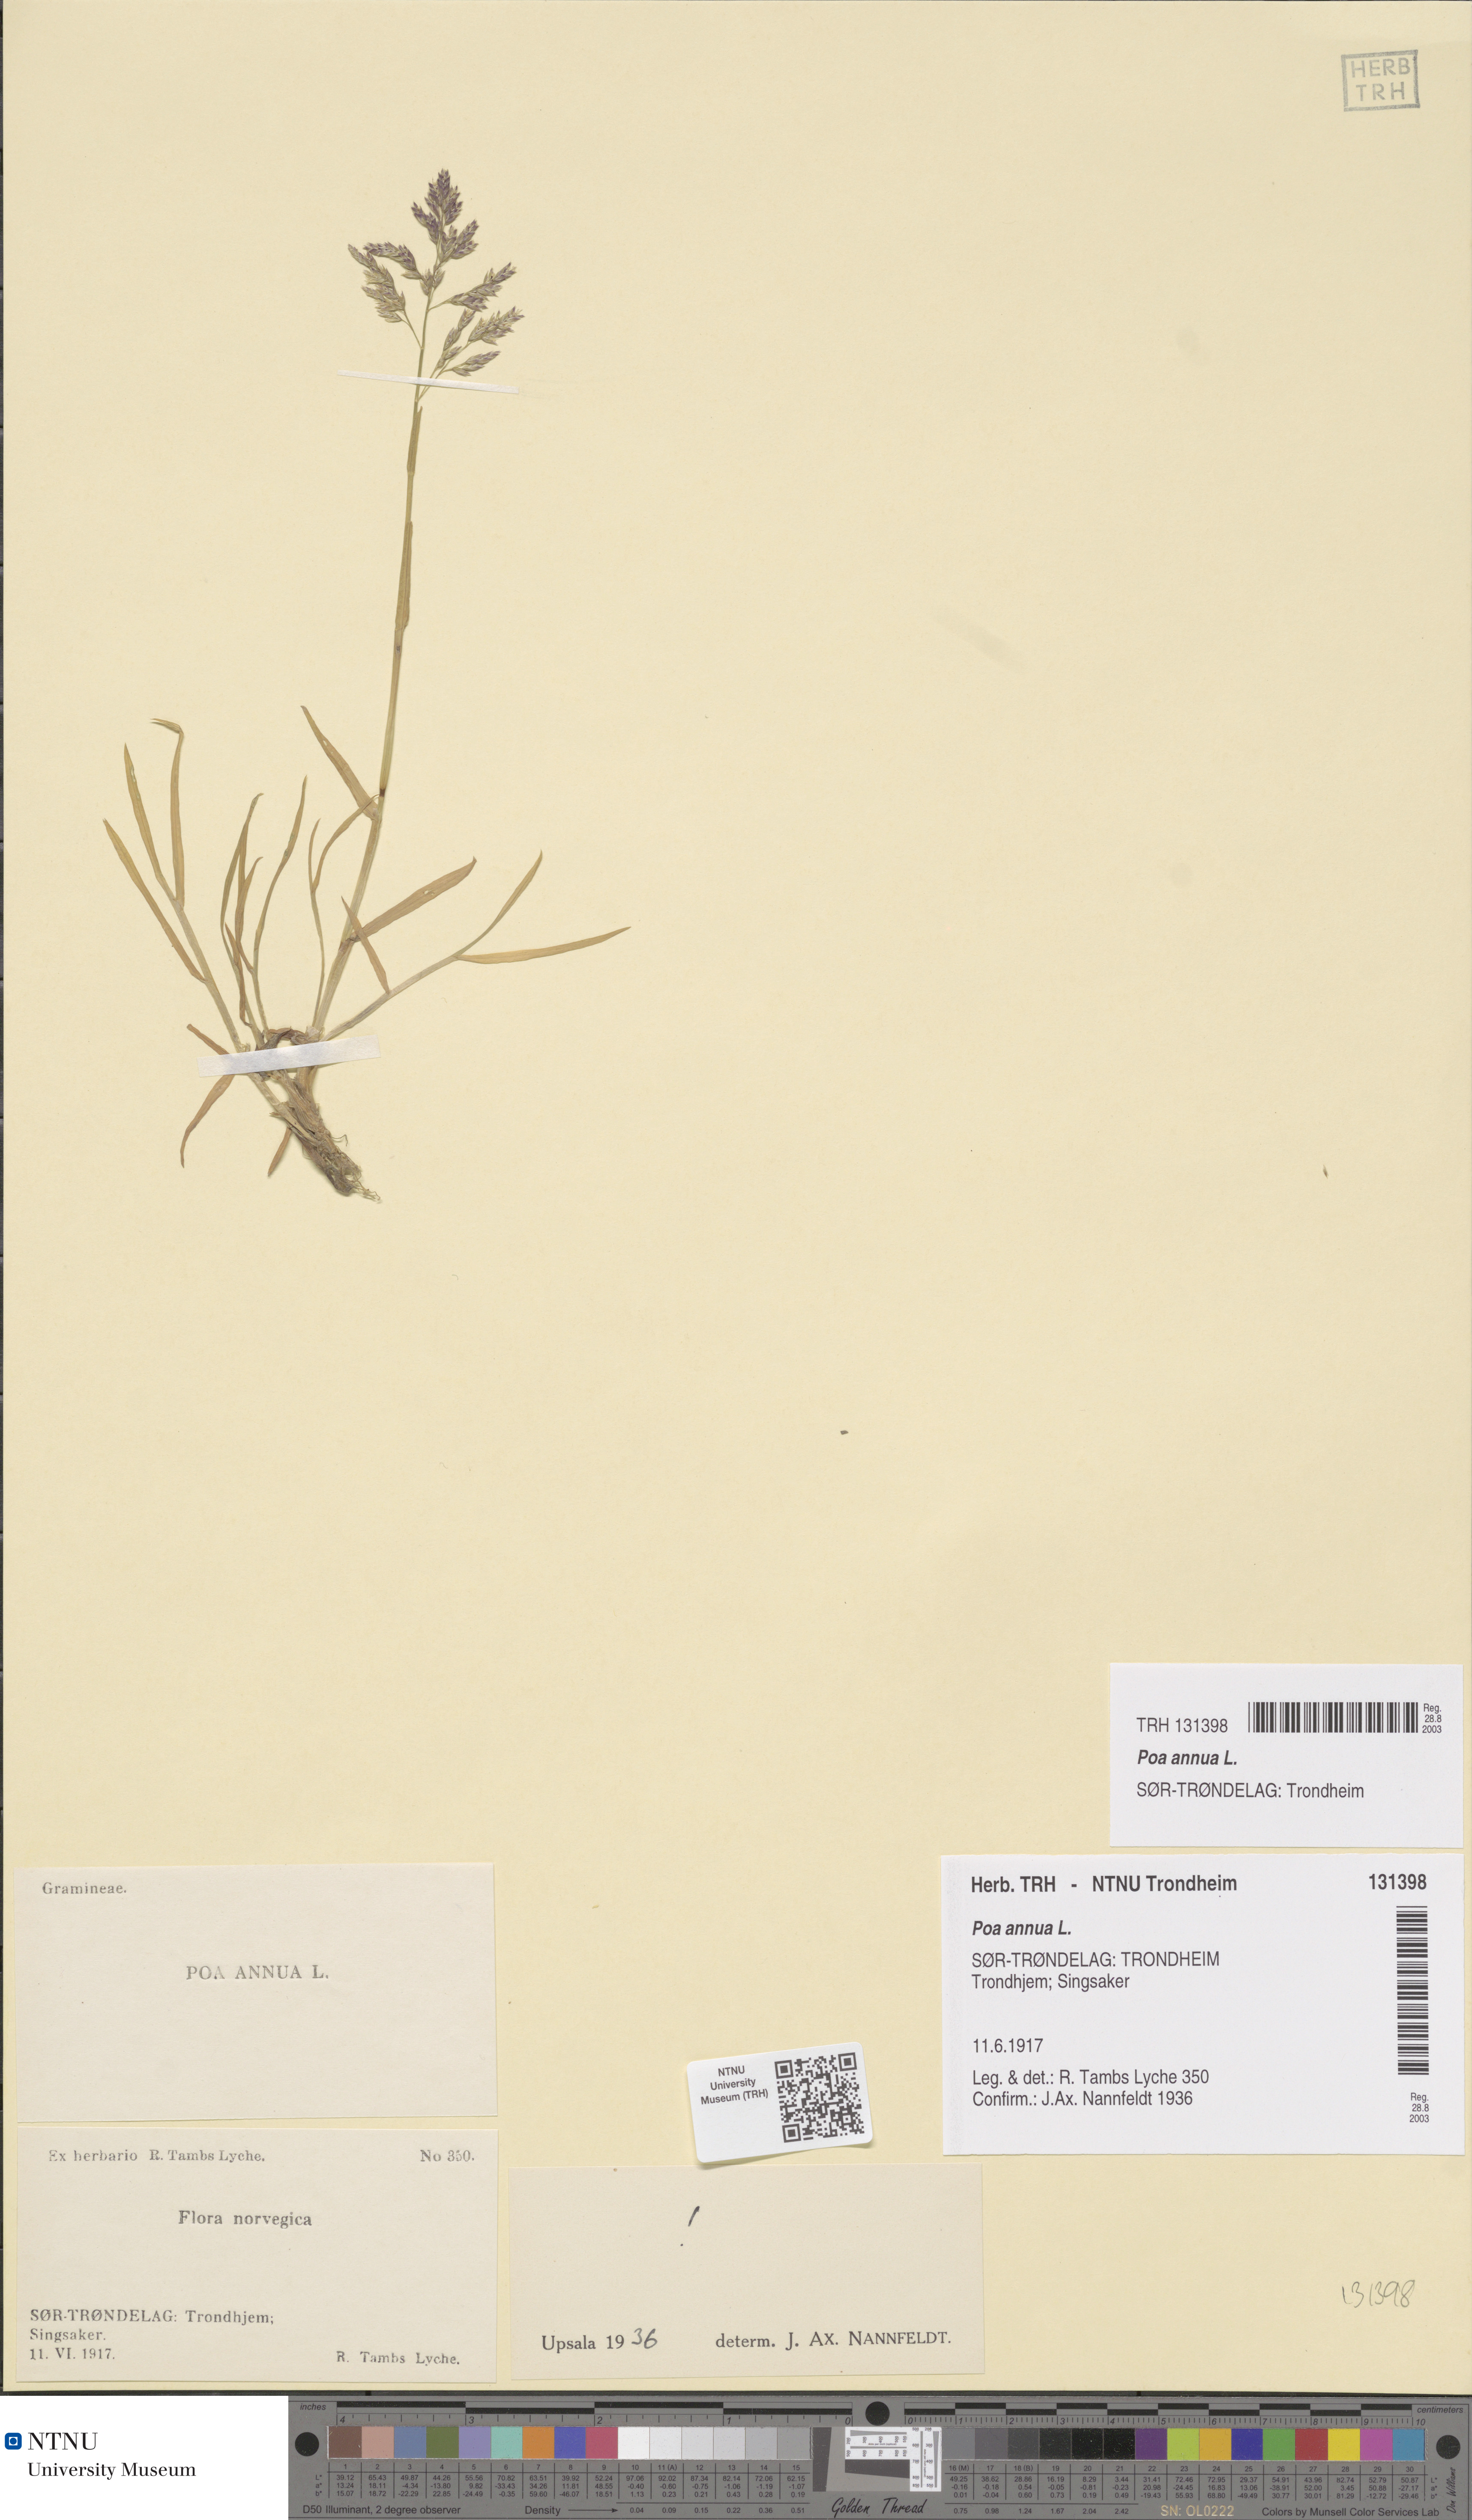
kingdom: Plantae
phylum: Tracheophyta
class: Liliopsida
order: Poales
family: Poaceae
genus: Poa
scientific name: Poa annua
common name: Annual bluegrass
